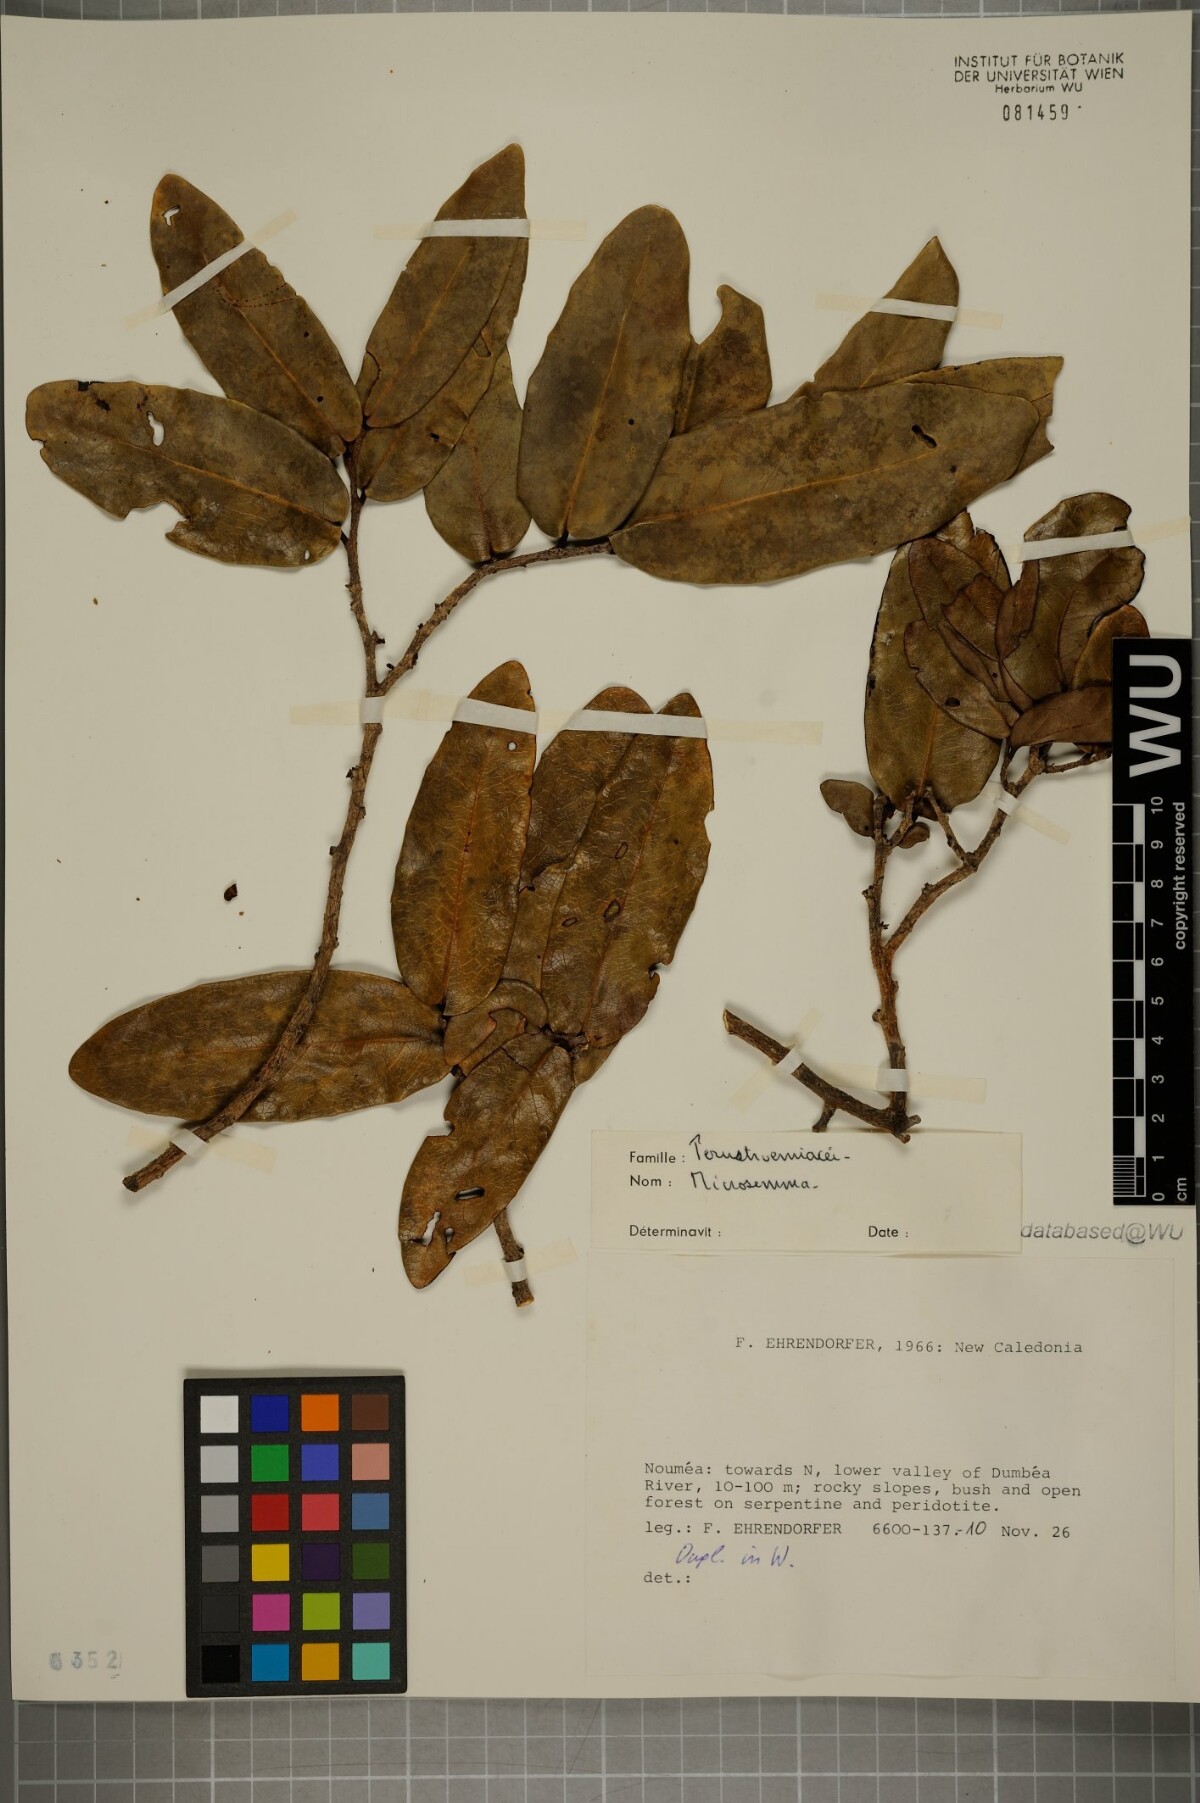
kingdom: Plantae
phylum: Tracheophyta
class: Magnoliopsida
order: Malvales
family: Thymelaeaceae
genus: Lethedon
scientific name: Lethedon
